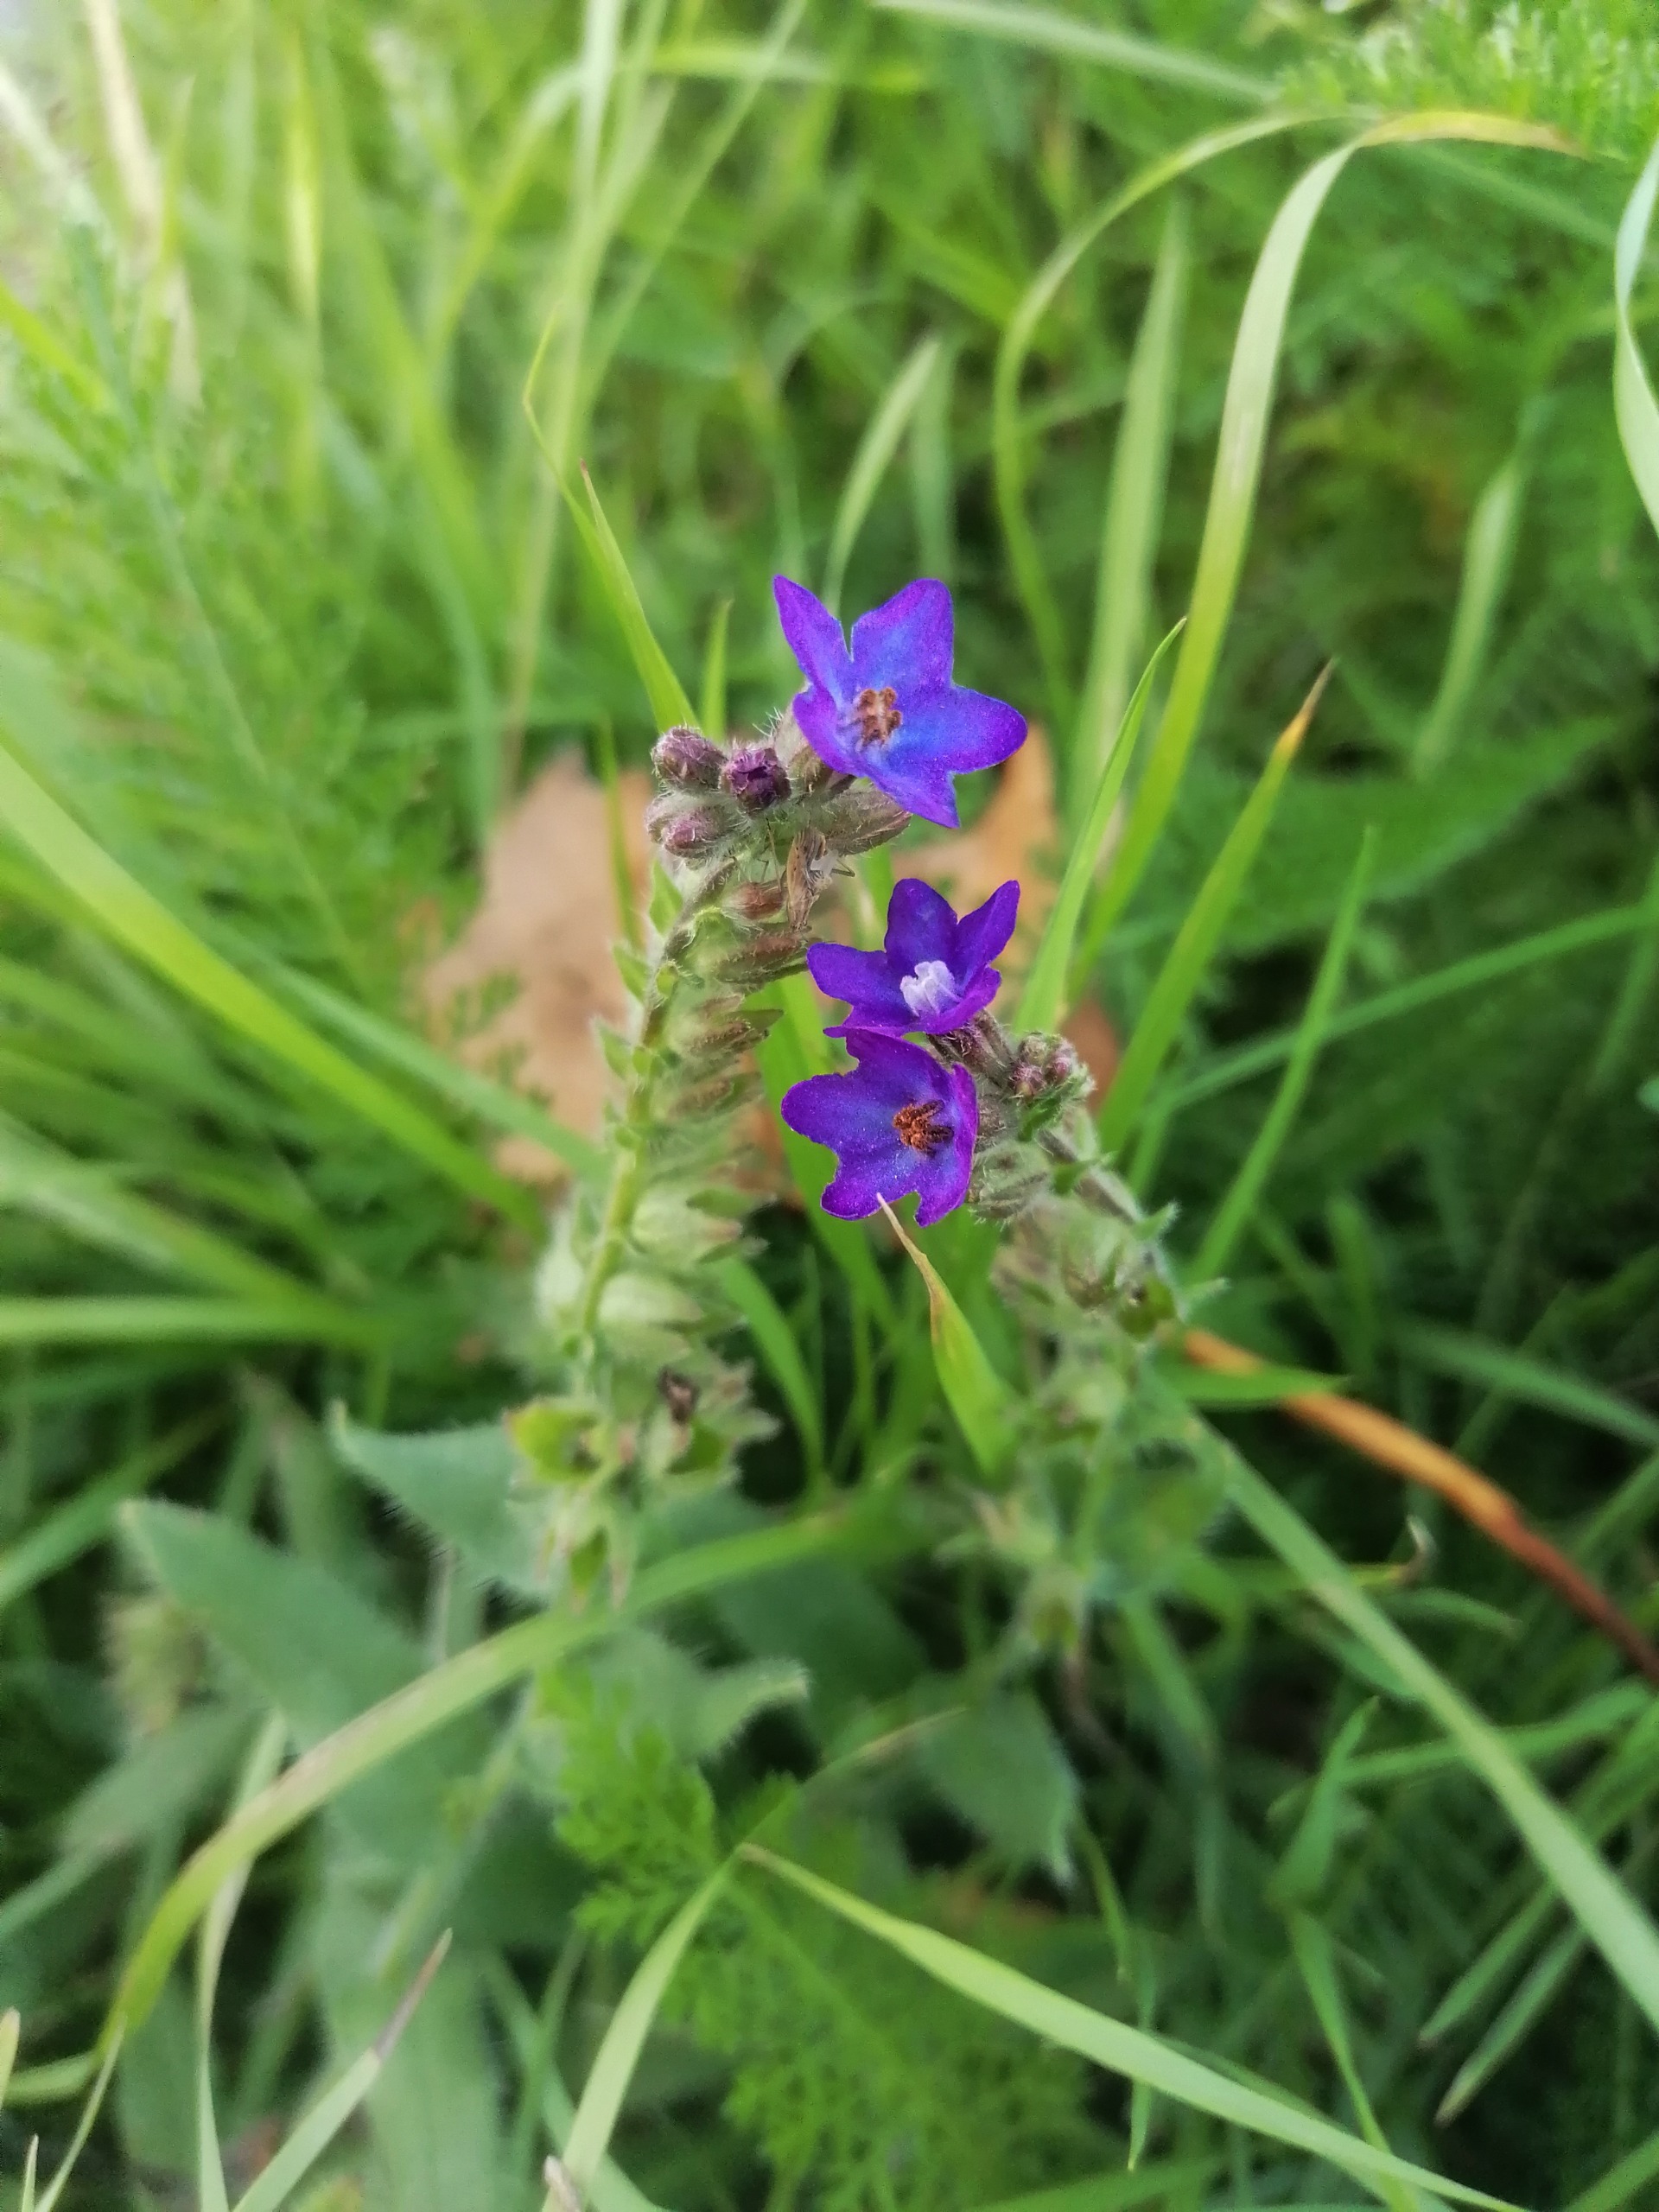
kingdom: Plantae
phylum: Tracheophyta
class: Magnoliopsida
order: Boraginales
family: Boraginaceae
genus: Anchusa
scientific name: Anchusa officinalis
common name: Læge-oksetunge
